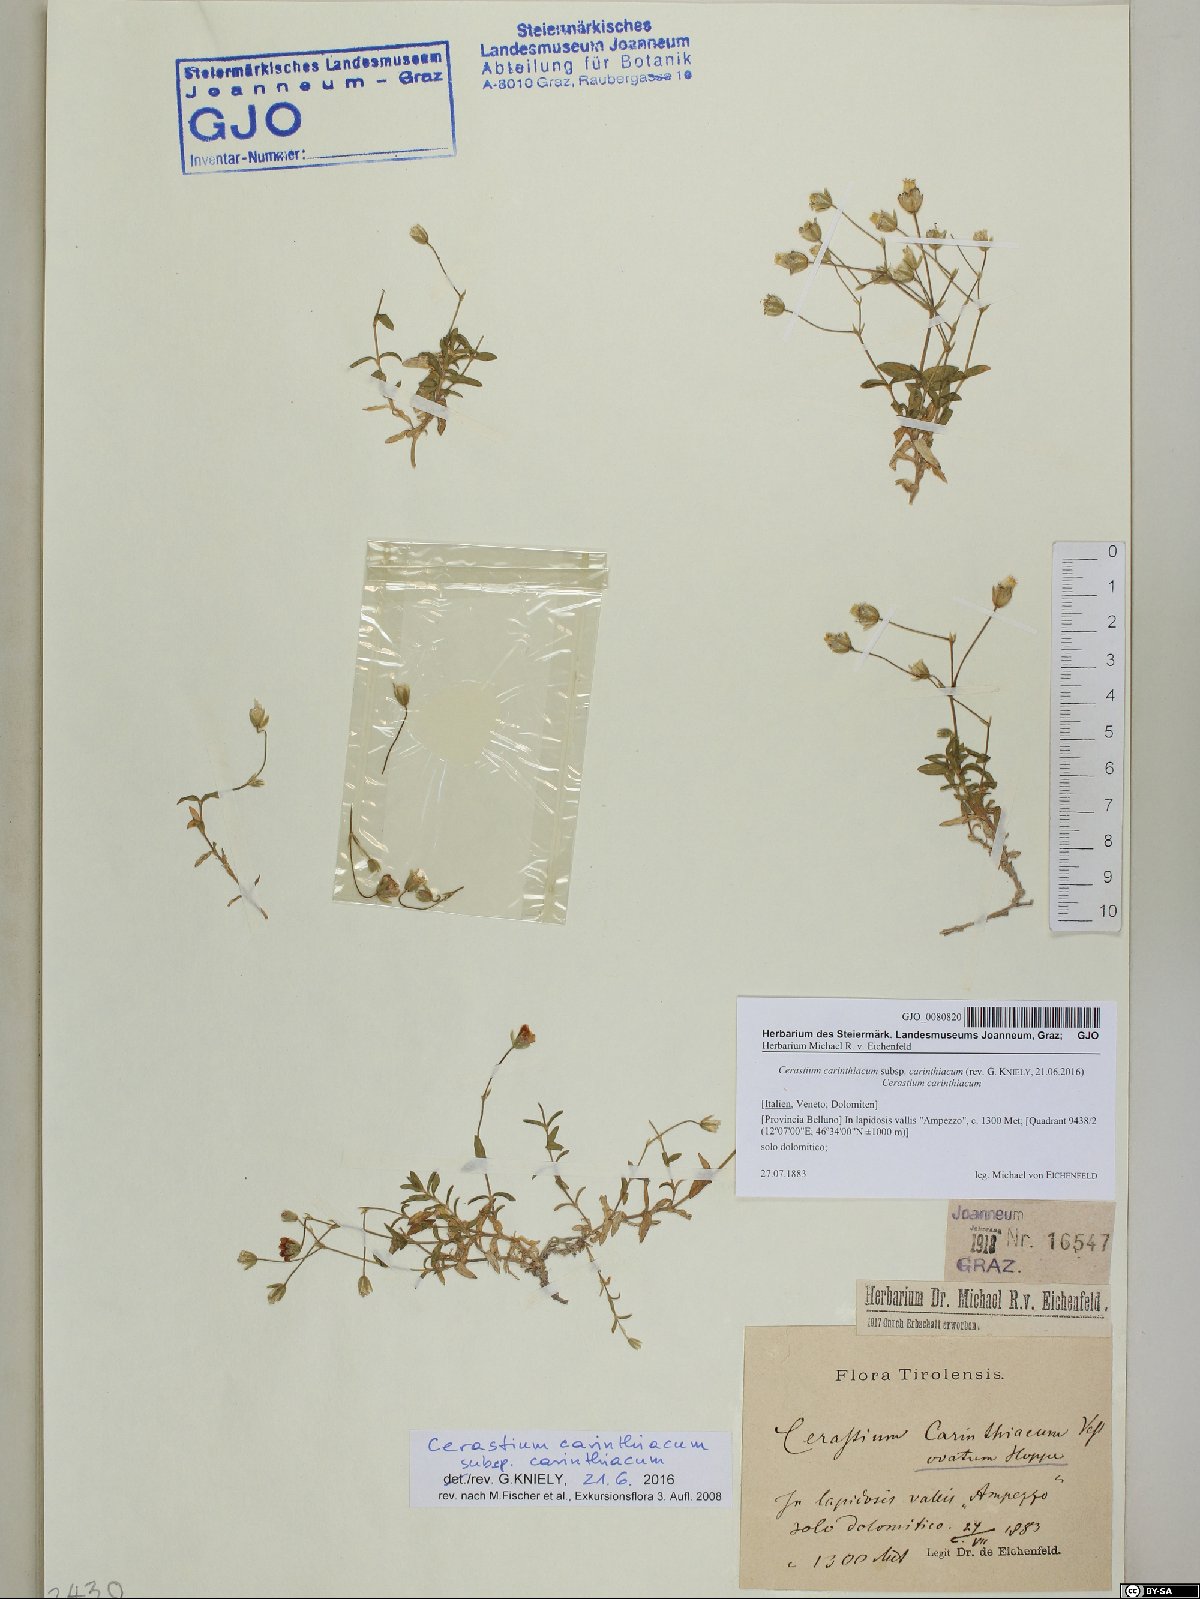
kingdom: Plantae
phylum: Tracheophyta
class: Magnoliopsida
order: Caryophyllales
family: Caryophyllaceae
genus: Cerastium
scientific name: Cerastium carinthiacum
